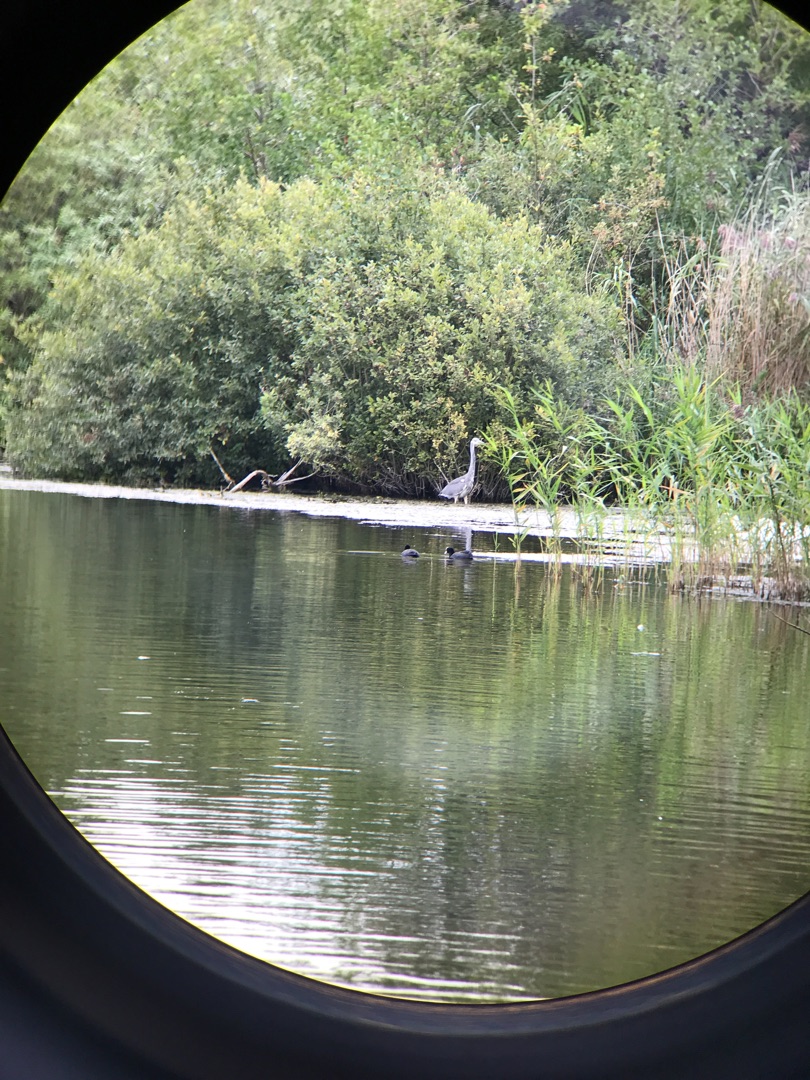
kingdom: Animalia
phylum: Chordata
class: Aves
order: Pelecaniformes
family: Ardeidae
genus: Ardea
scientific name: Ardea cinerea
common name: Fiskehejre
